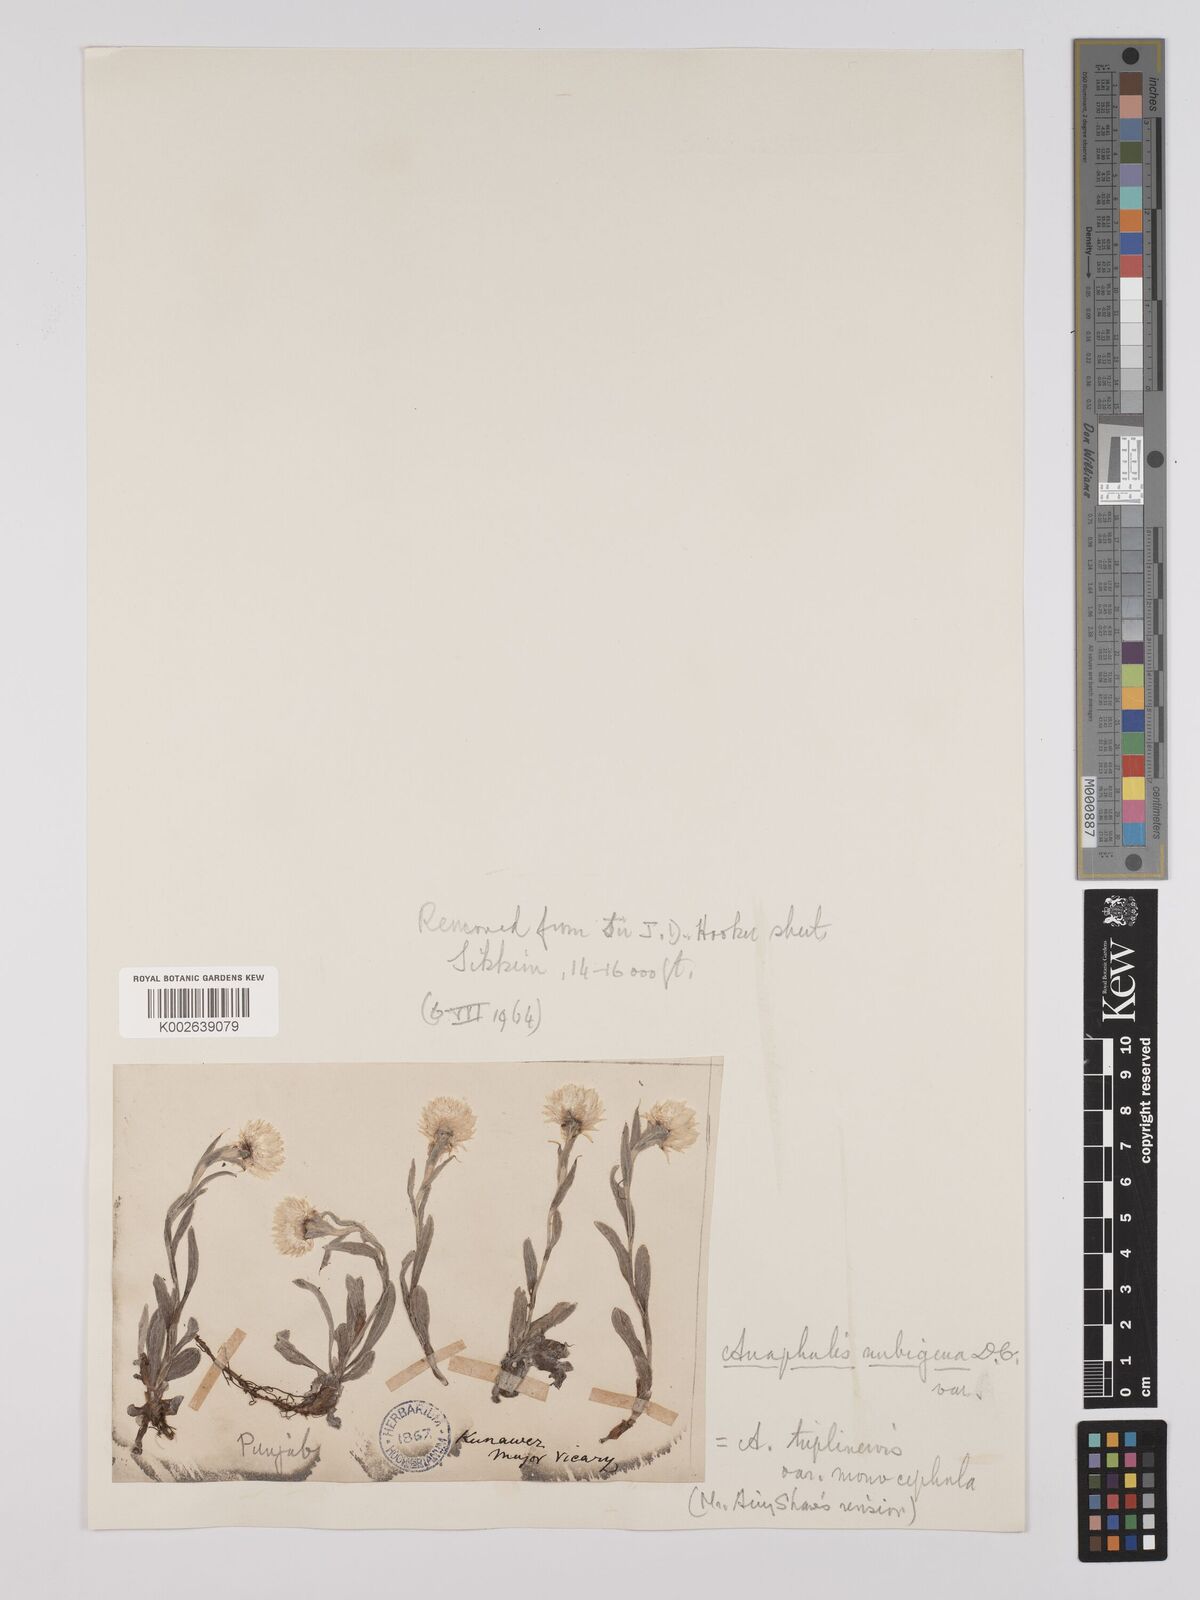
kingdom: Plantae
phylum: Tracheophyta
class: Magnoliopsida
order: Asterales
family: Asteraceae
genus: Anaphalis
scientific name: Anaphalis nepalensis
